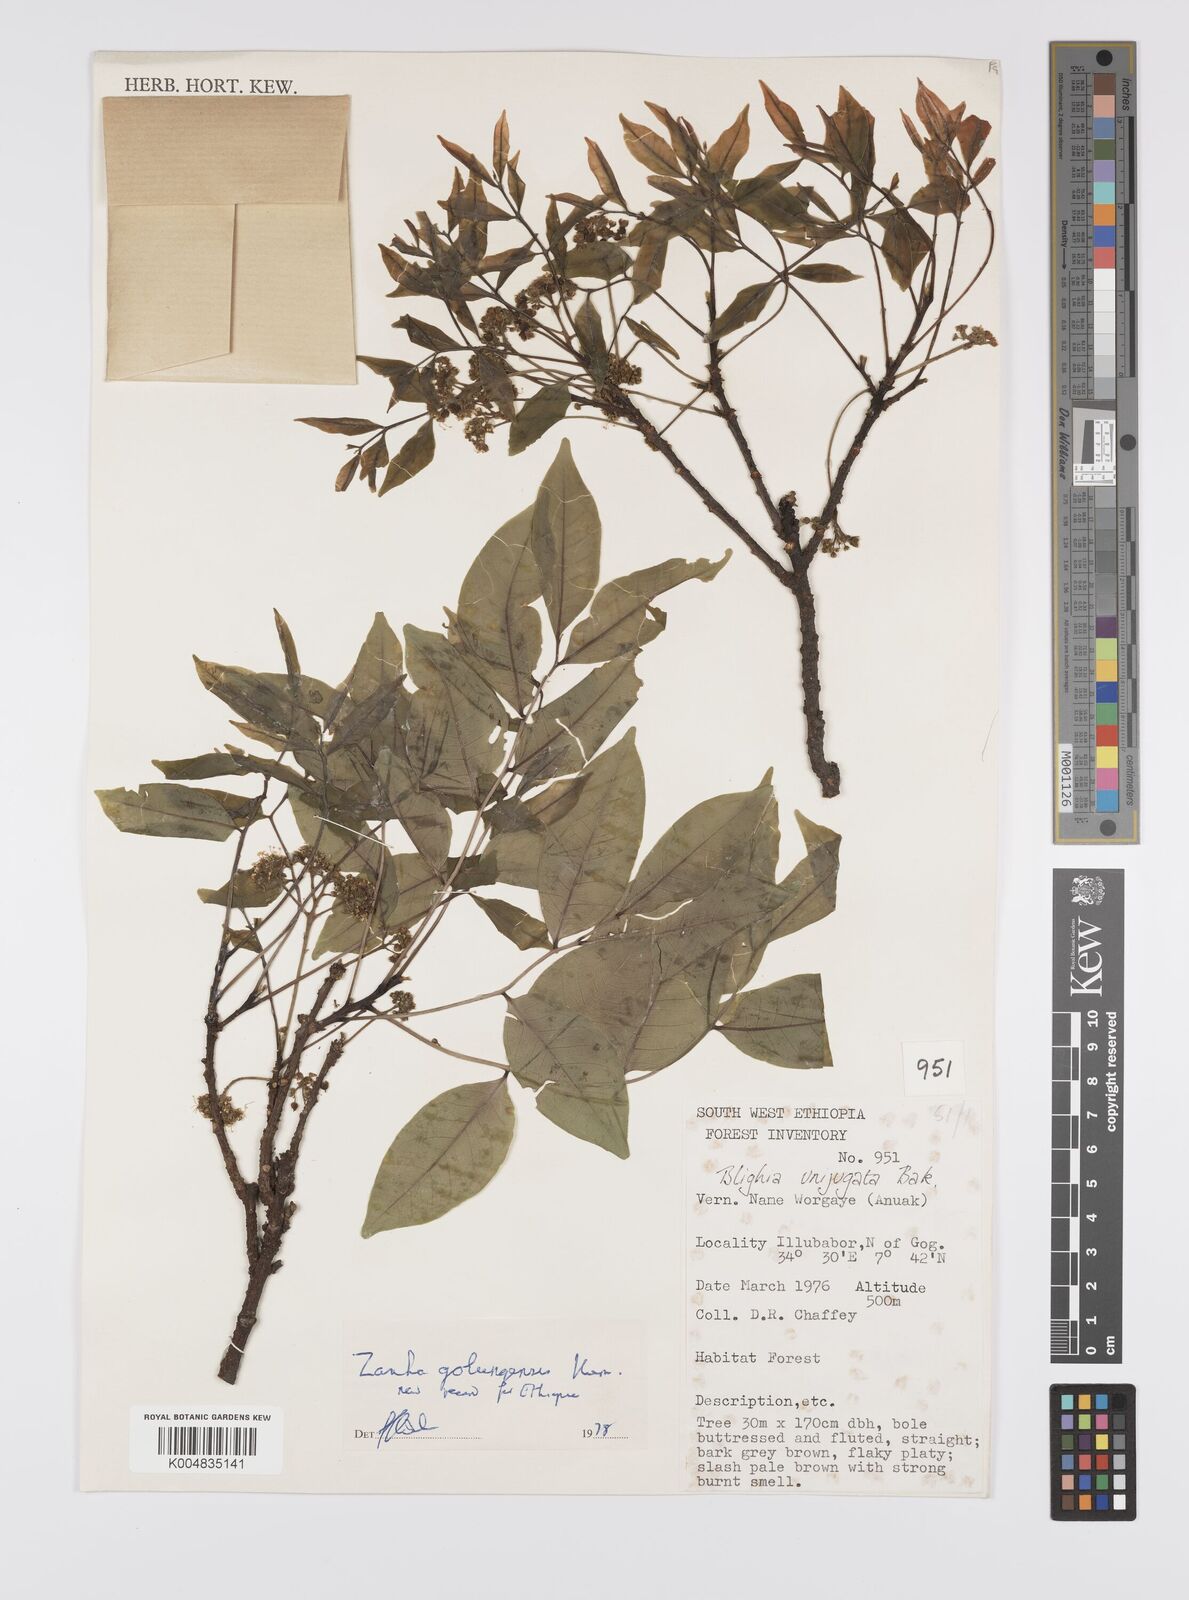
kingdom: Plantae
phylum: Tracheophyta
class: Magnoliopsida
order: Sapindales
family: Sapindaceae
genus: Zanha
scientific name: Zanha golungensis
